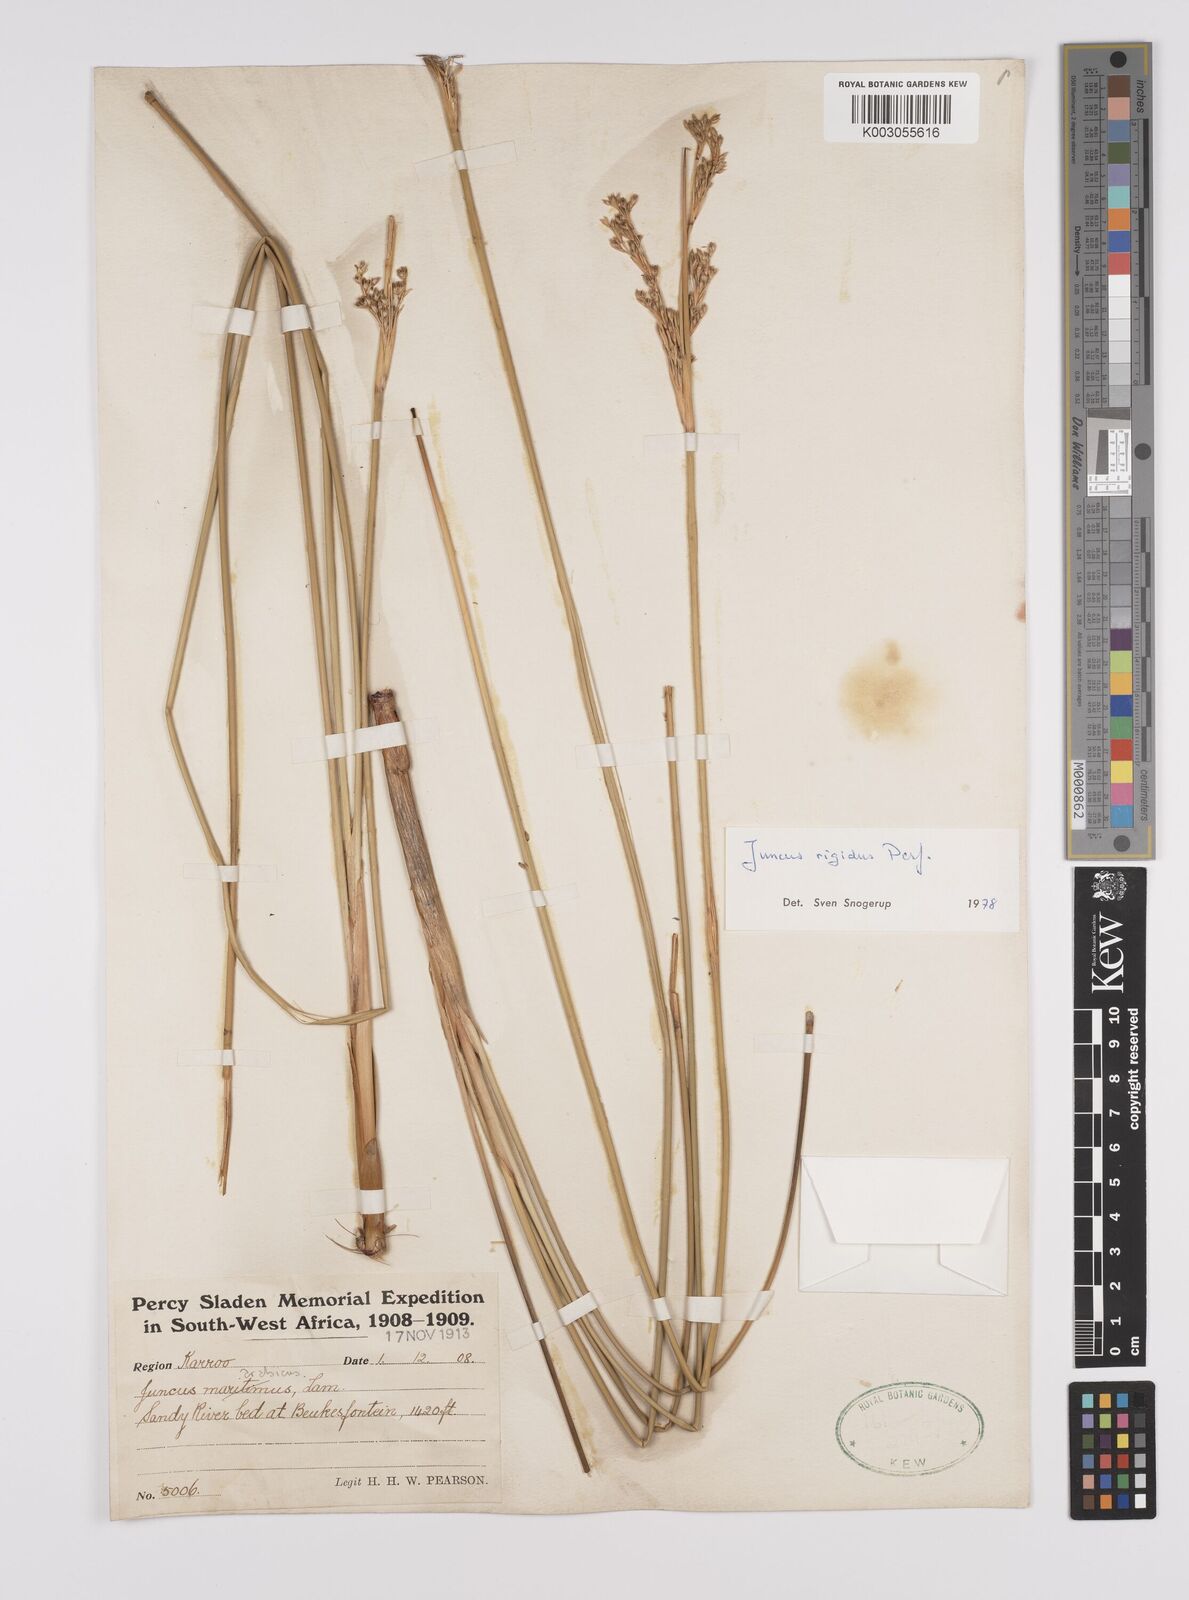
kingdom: Plantae
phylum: Tracheophyta
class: Liliopsida
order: Poales
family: Juncaceae
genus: Juncus
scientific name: Juncus rigidus
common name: Hard sea rush
